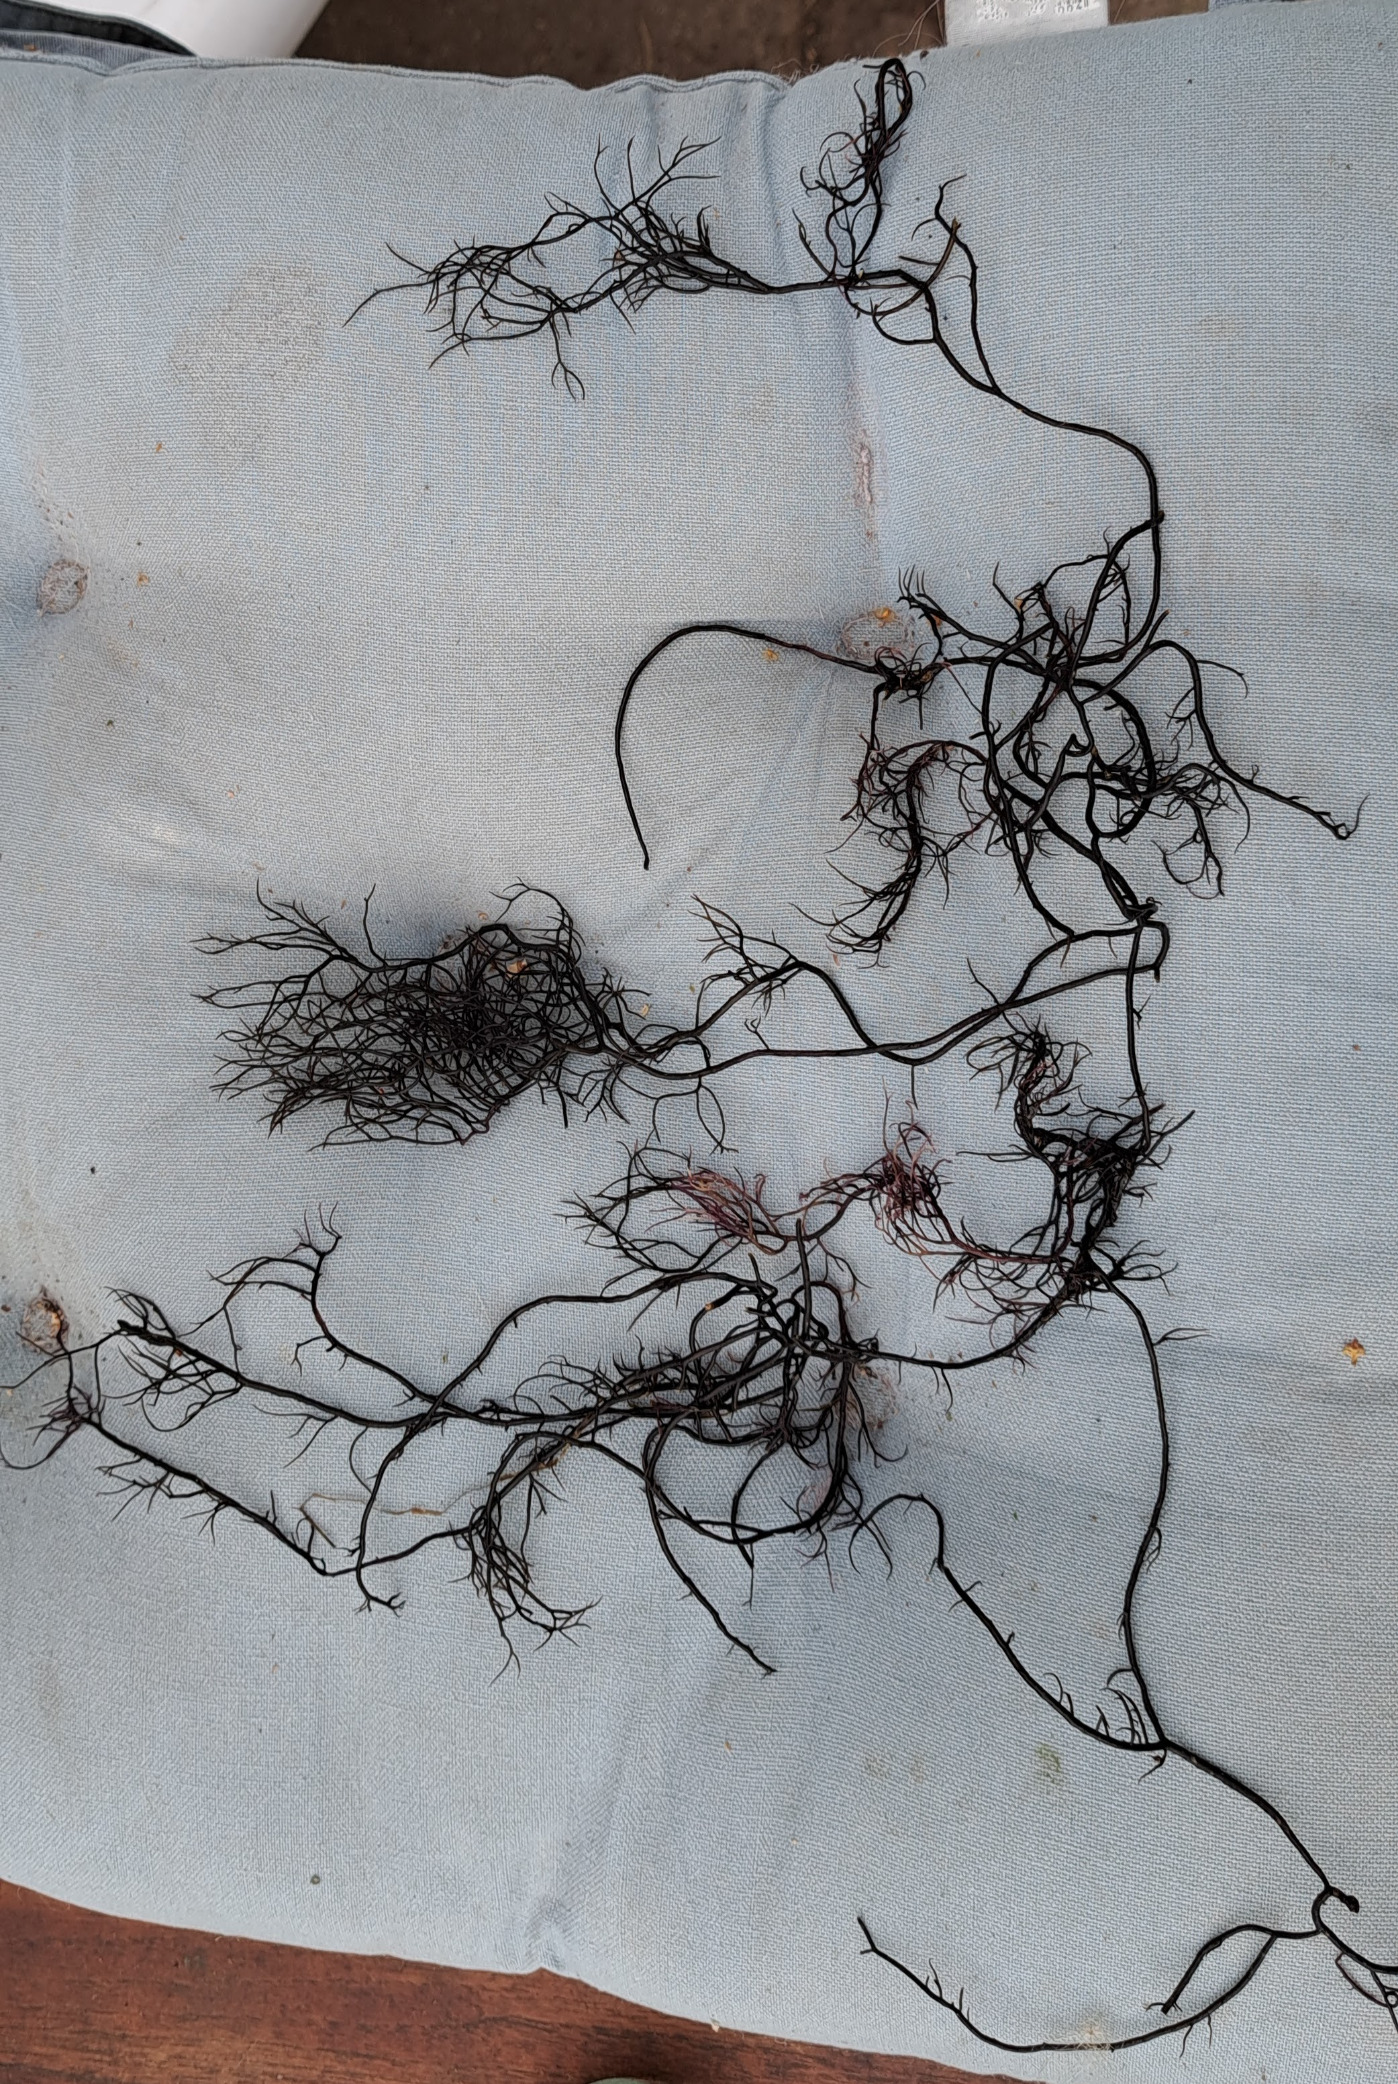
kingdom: Plantae
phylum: Rhodophyta
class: Florideophyceae
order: Gracilariales
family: Gracilariaceae
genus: Gracilaria
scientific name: Gracilaria vermiculophylla
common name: Brunlig gracilariatang
